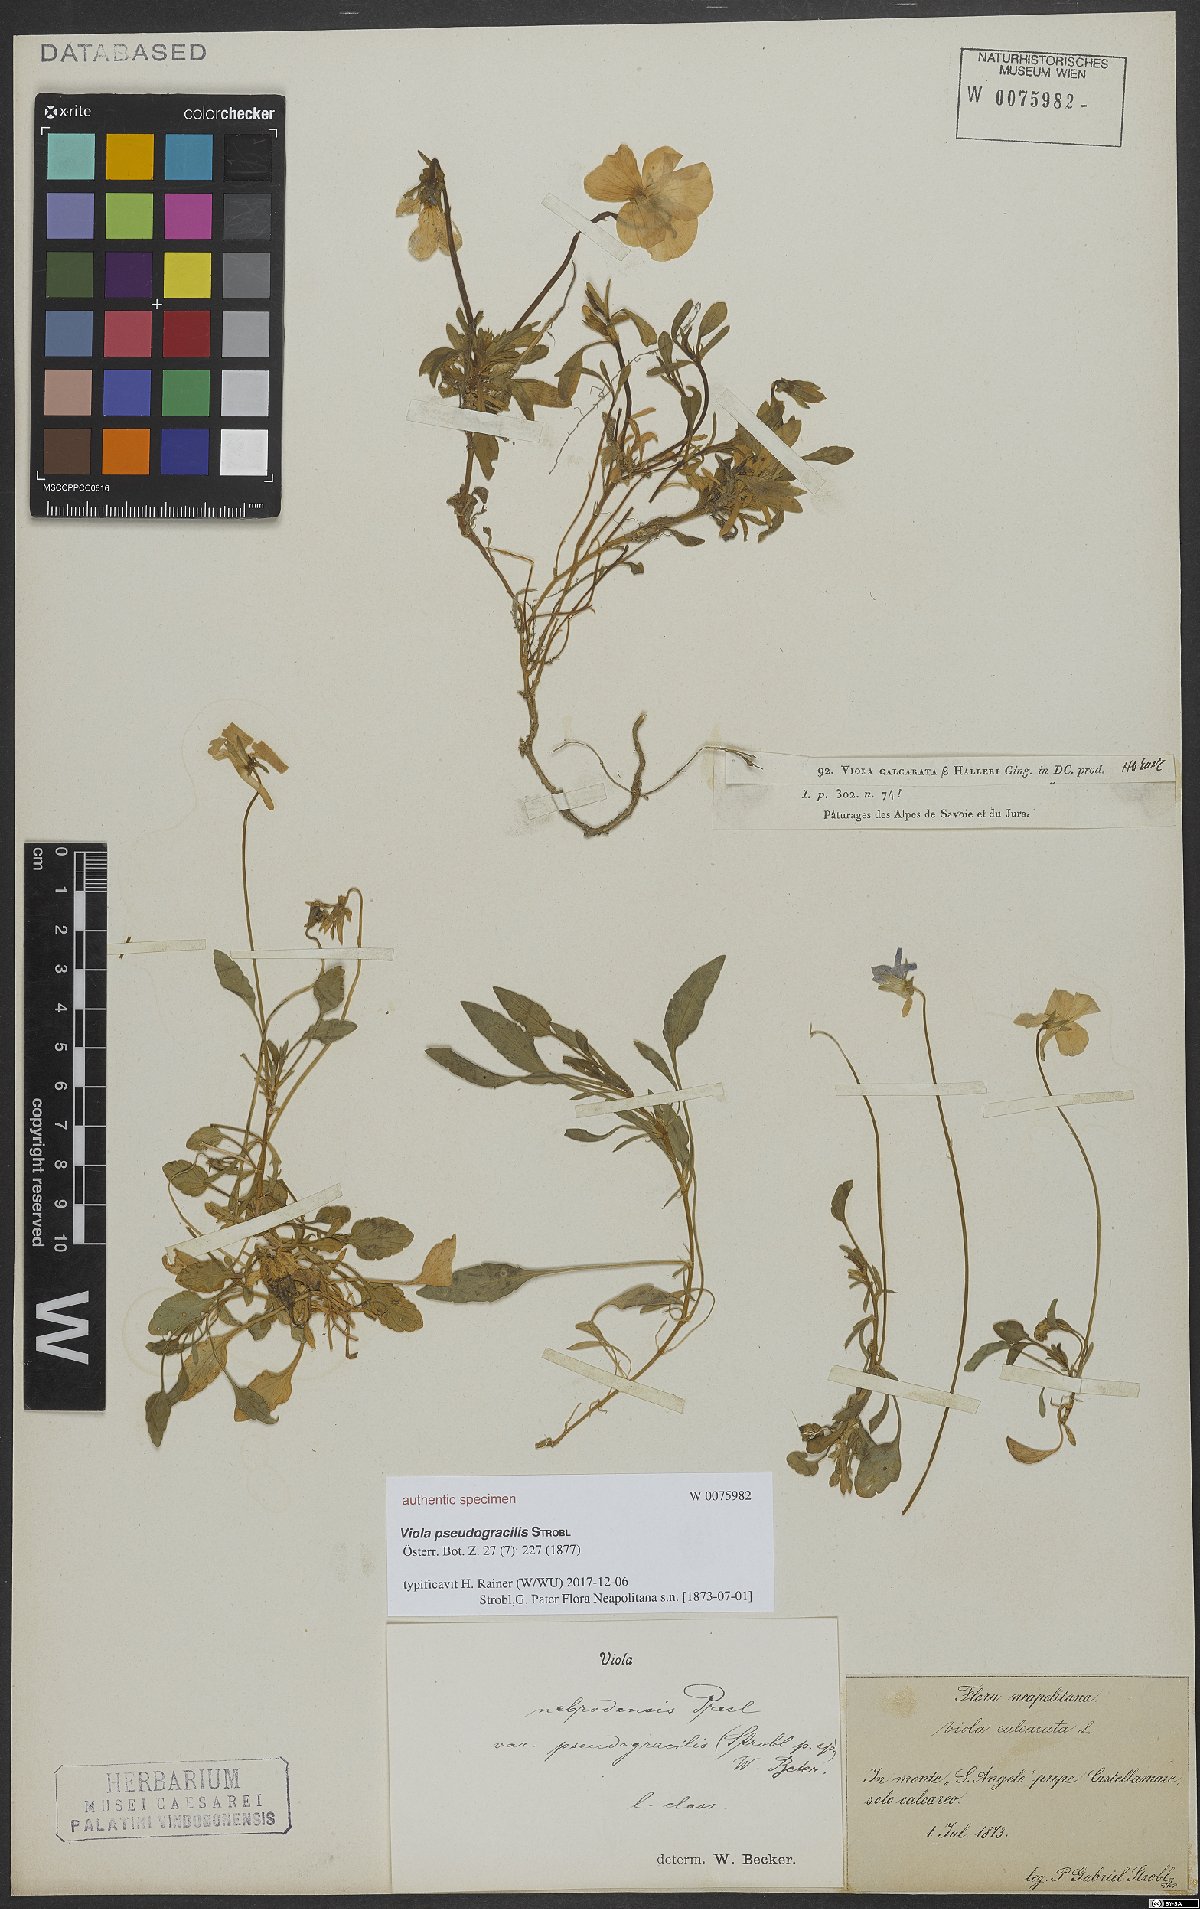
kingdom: Plantae
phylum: Tracheophyta
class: Magnoliopsida
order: Malpighiales
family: Violaceae
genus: Viola
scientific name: Viola pseudogracilis
